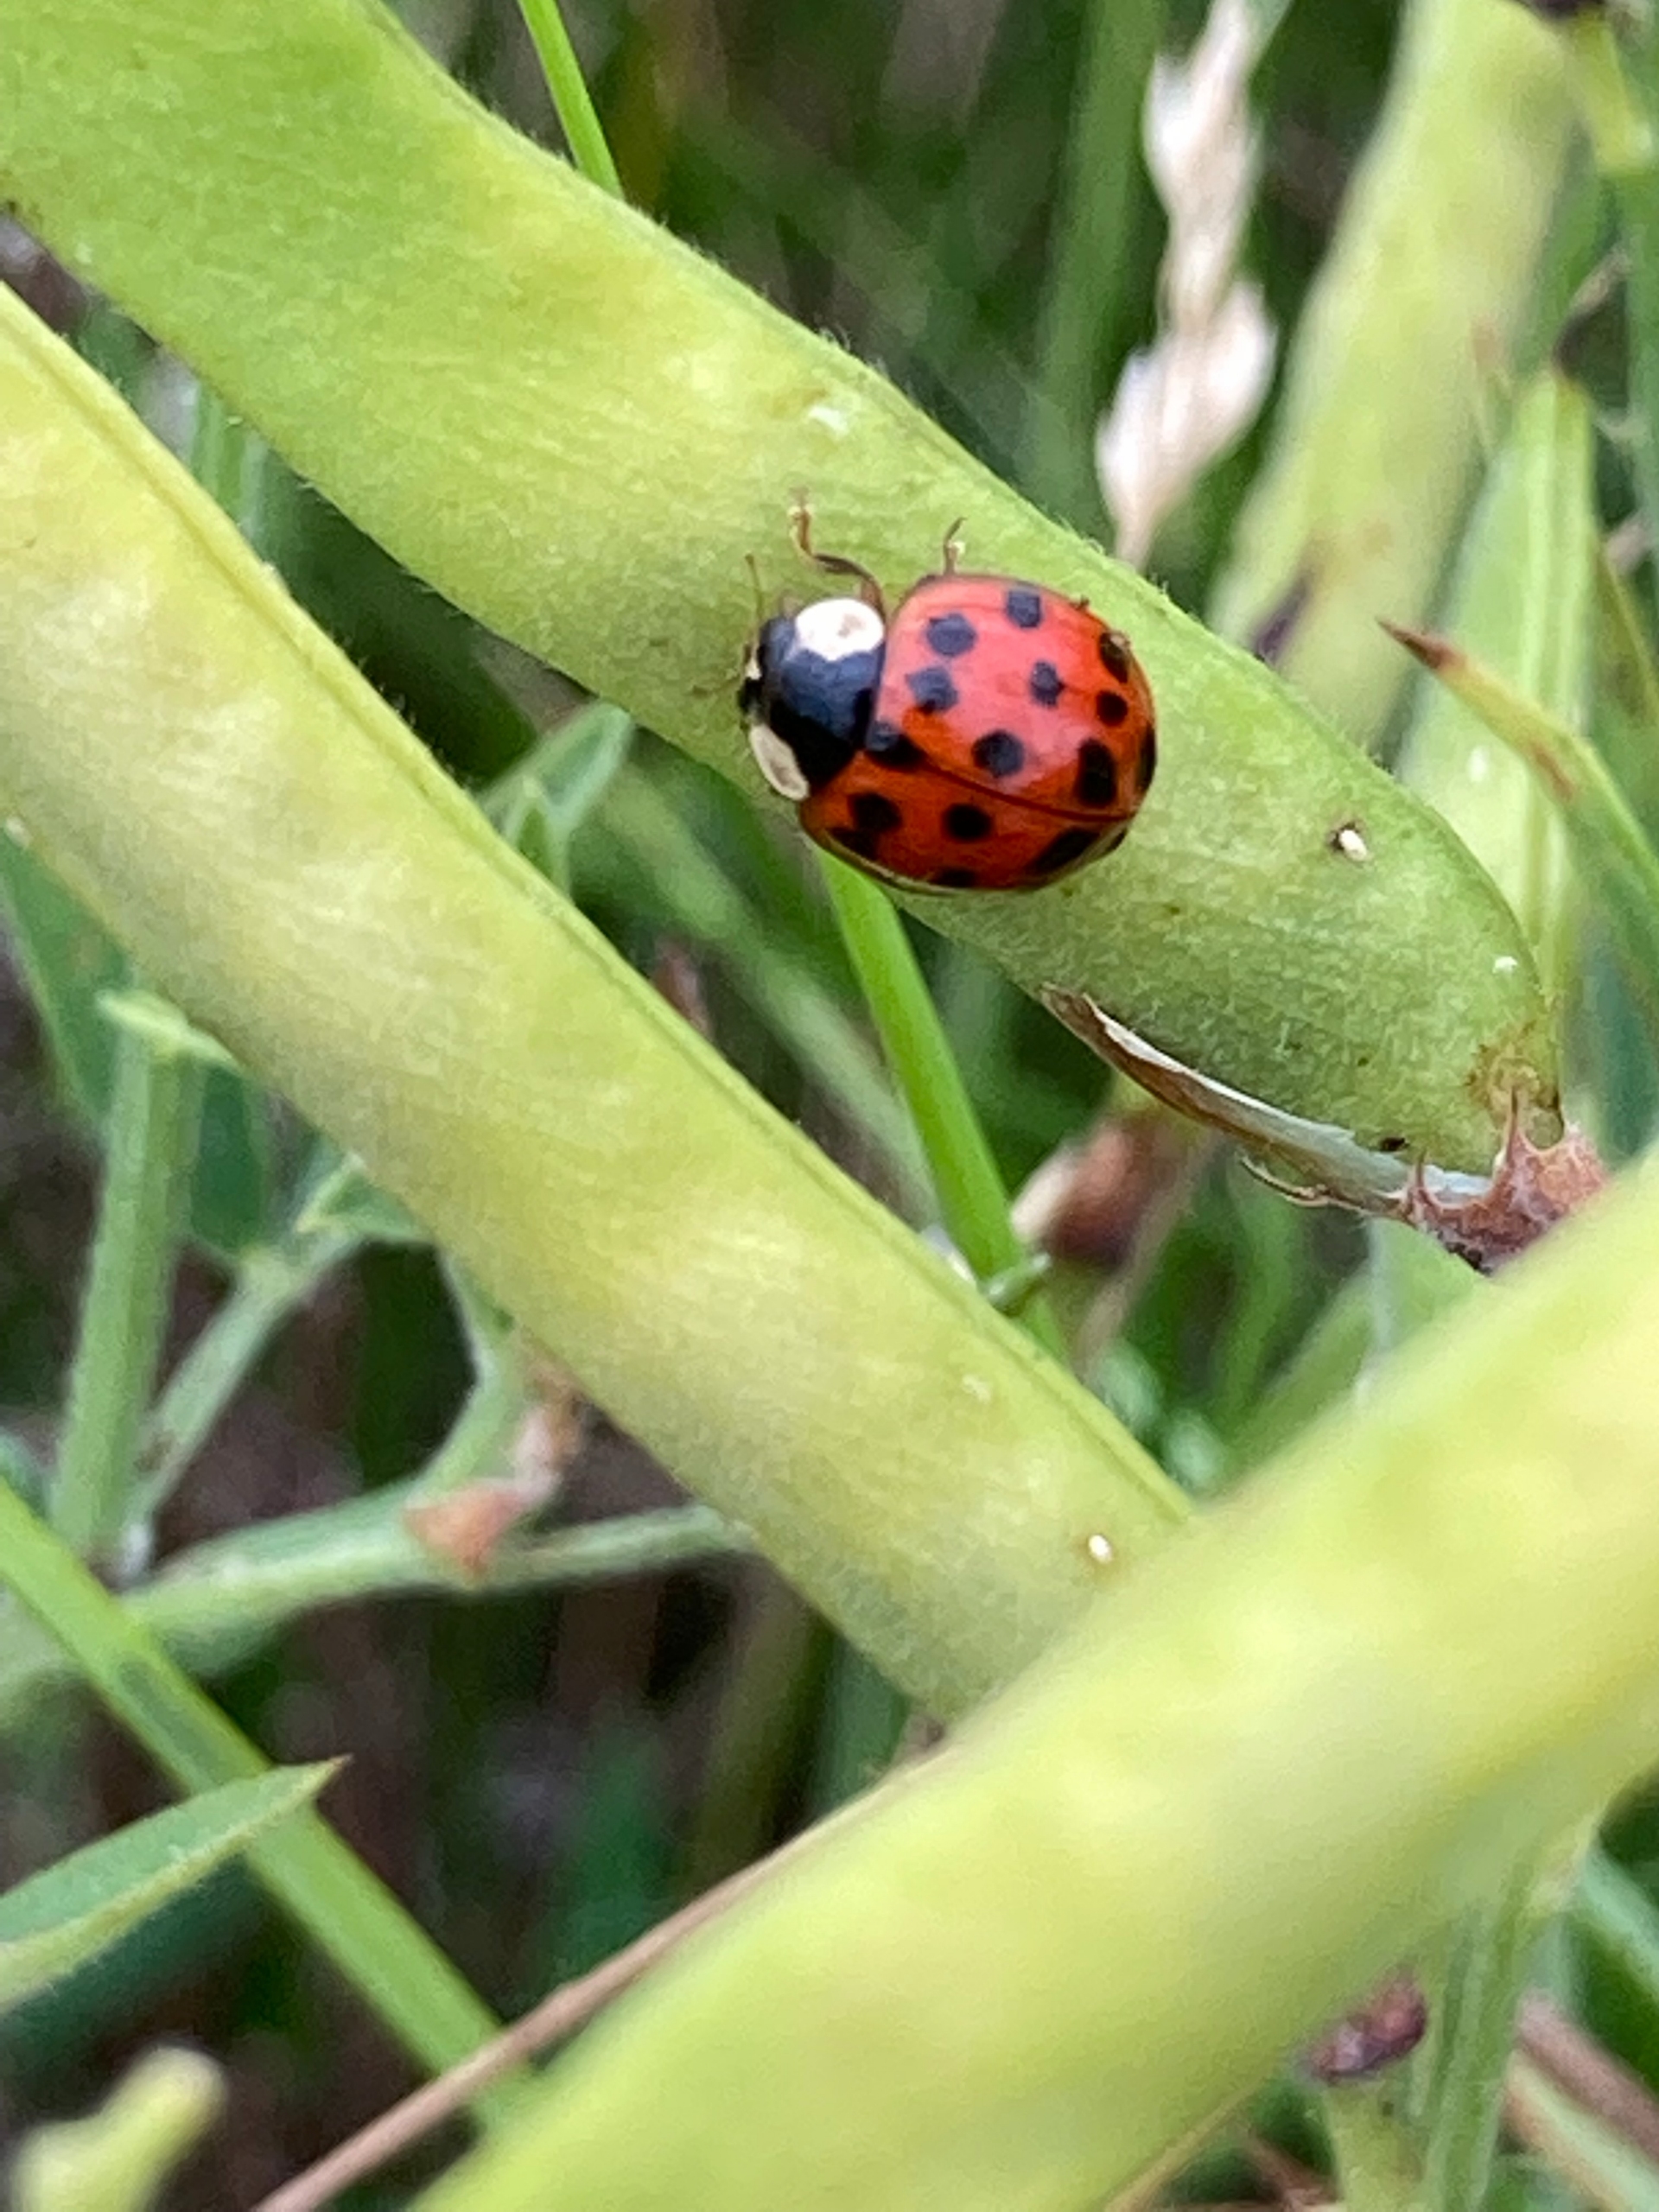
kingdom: Animalia
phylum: Arthropoda
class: Insecta
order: Coleoptera
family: Coccinellidae
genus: Harmonia
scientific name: Harmonia axyridis
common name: Harlekinmariehøne
